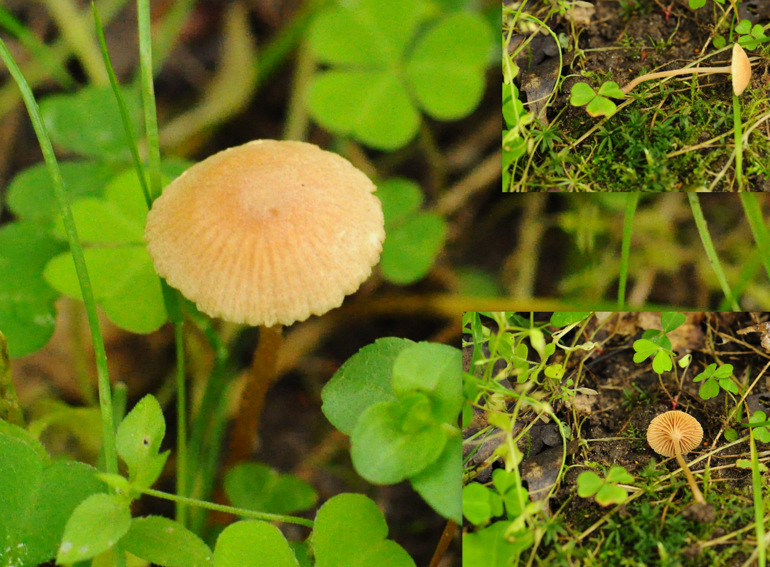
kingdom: Fungi
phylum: Basidiomycota
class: Agaricomycetes
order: Agaricales
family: Tubariaceae
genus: Tubaria
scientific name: Tubaria conspersa
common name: bleg fnughat
